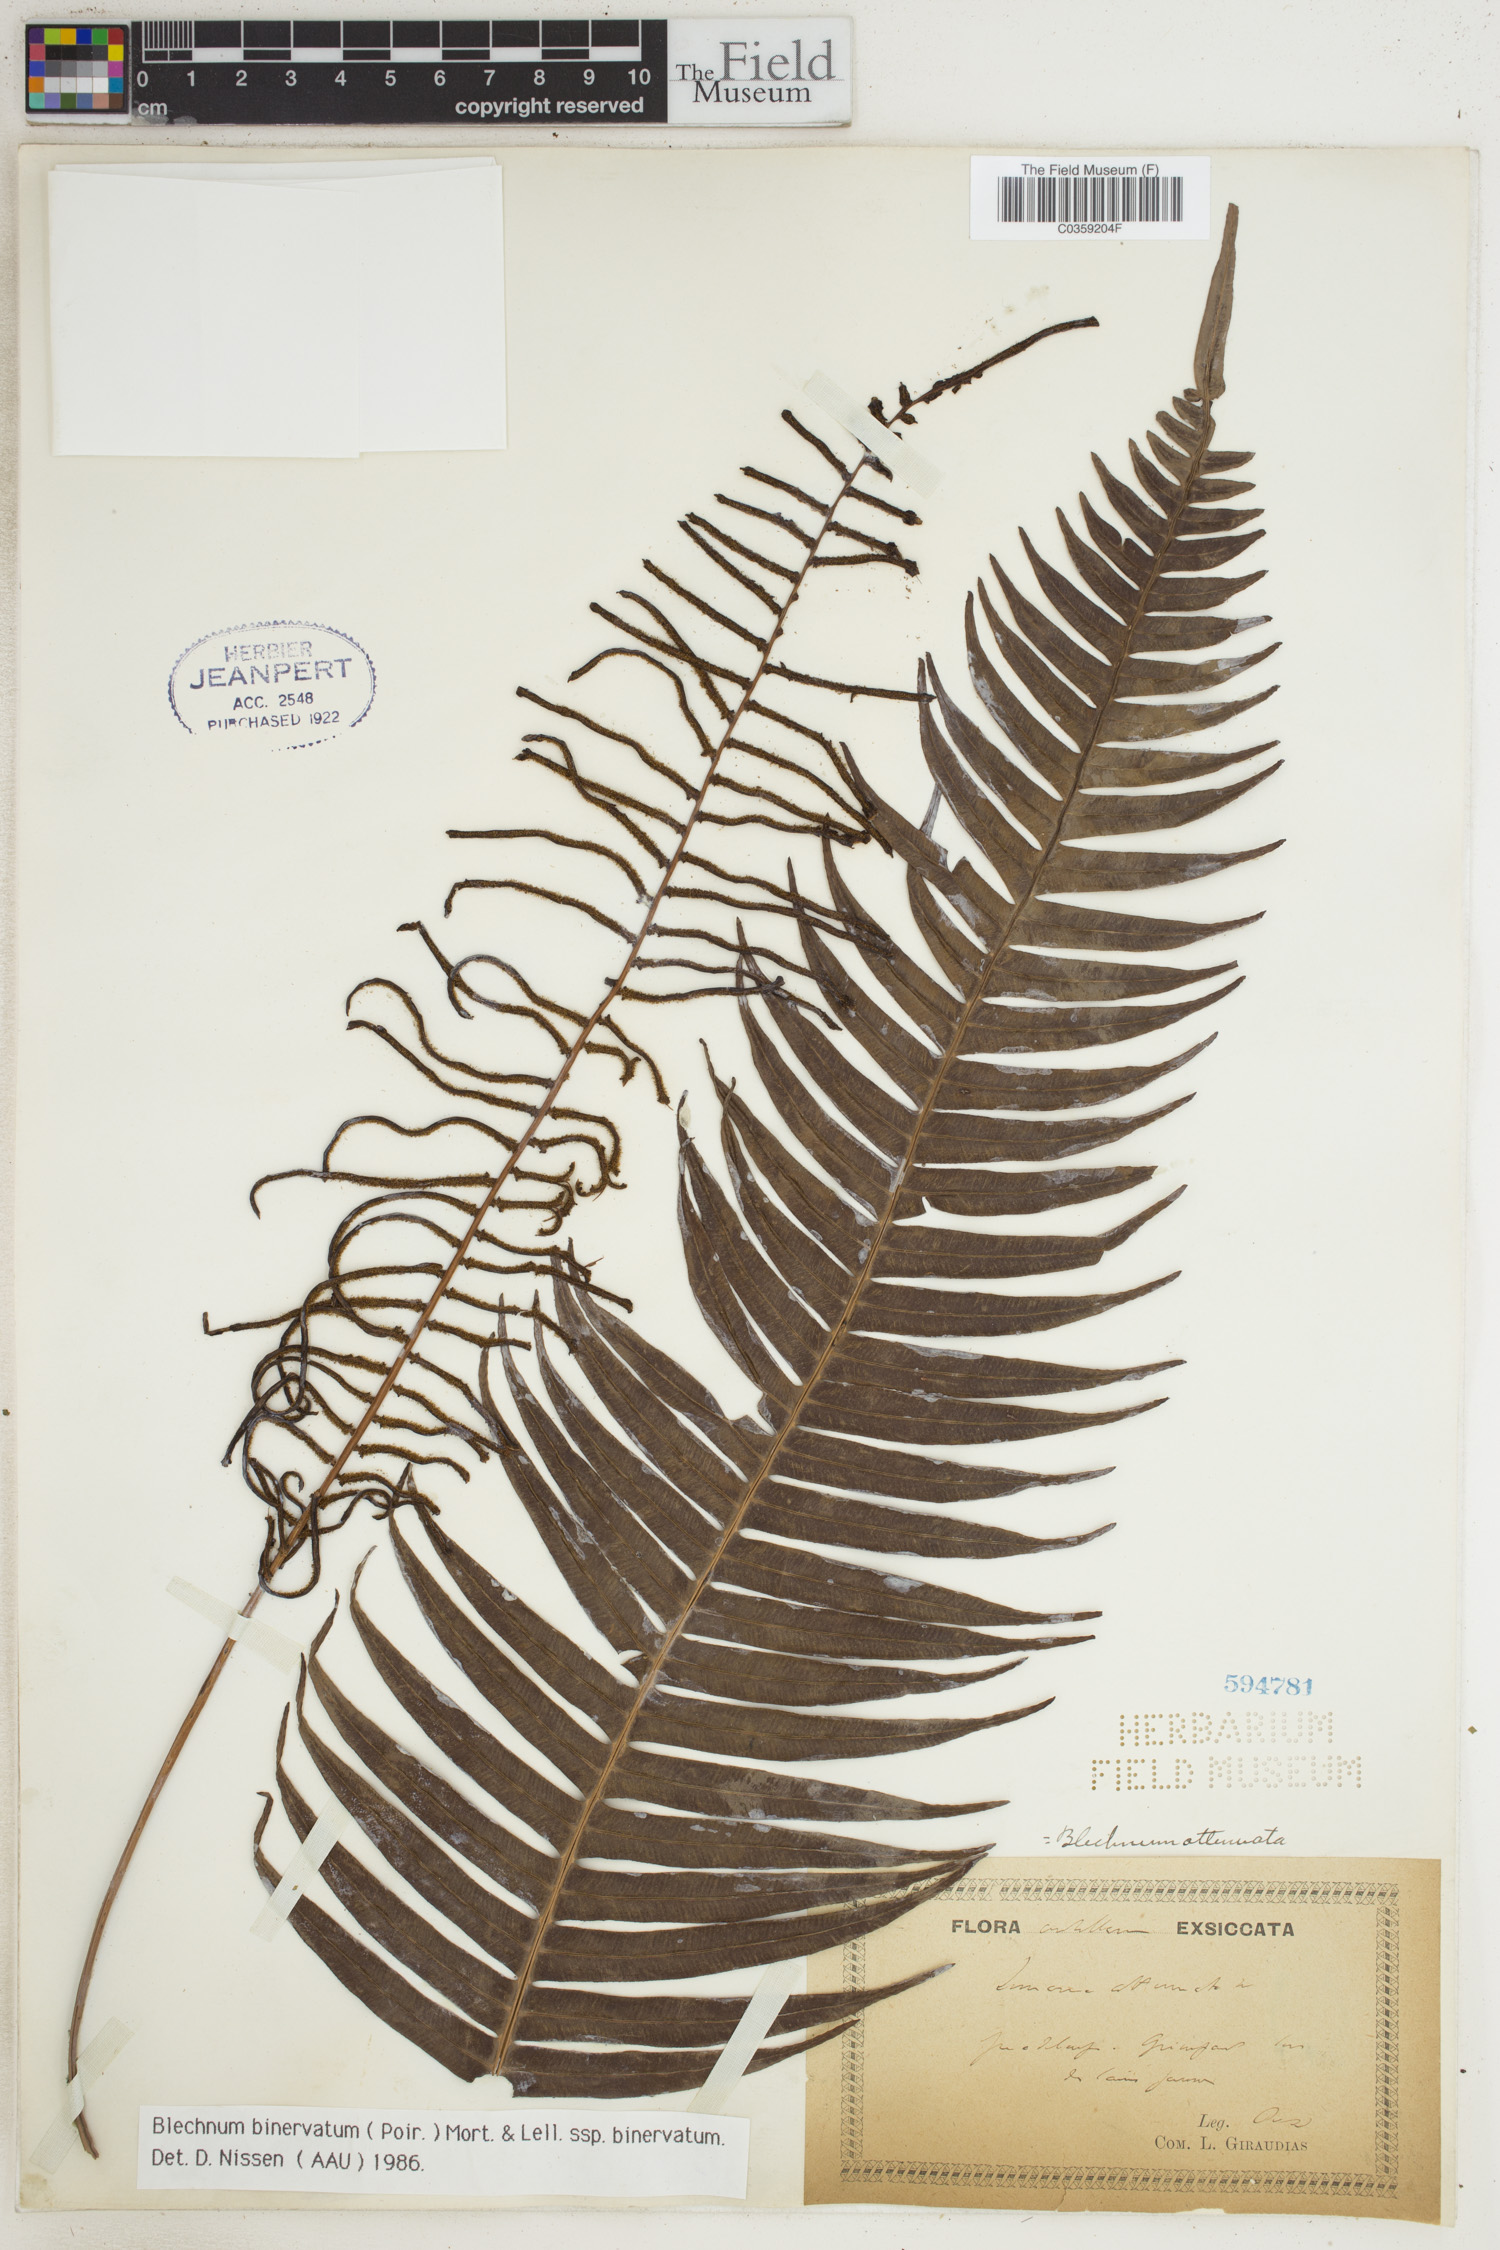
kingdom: Plantae
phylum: Tracheophyta
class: Polypodiopsida
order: Polypodiales
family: Blechnaceae
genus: Lomaridium
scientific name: Lomaridium binervatum
